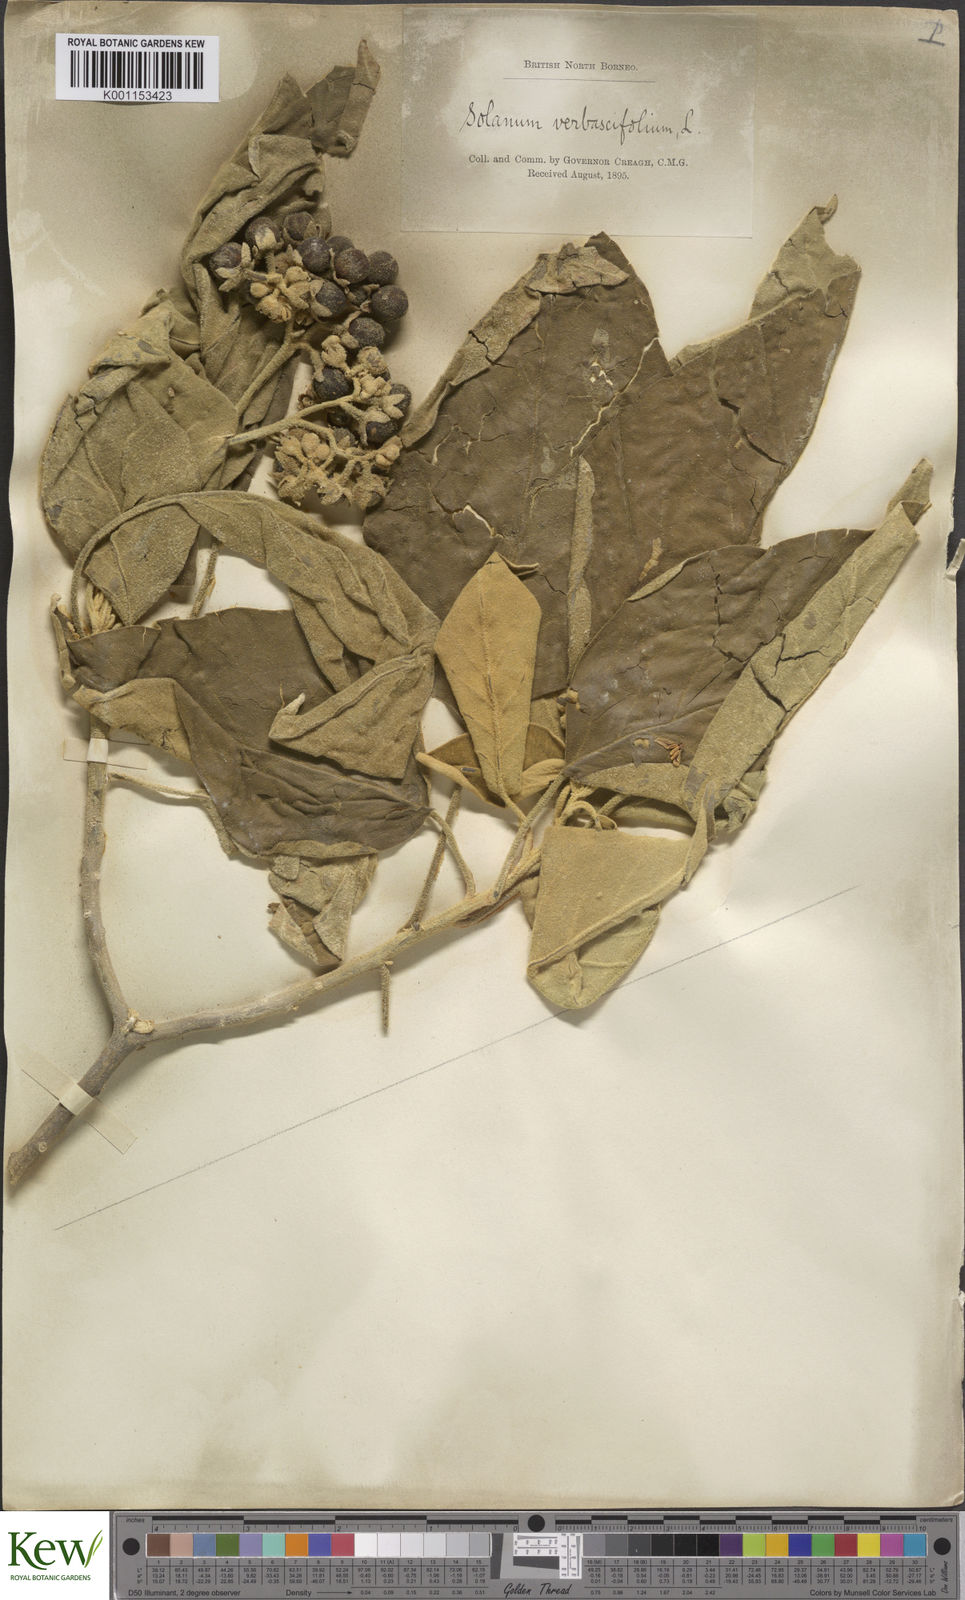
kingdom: Plantae
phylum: Tracheophyta
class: Magnoliopsida
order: Solanales
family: Solanaceae
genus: Solanum
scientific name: Solanum erianthum
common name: Tobacco-tree
